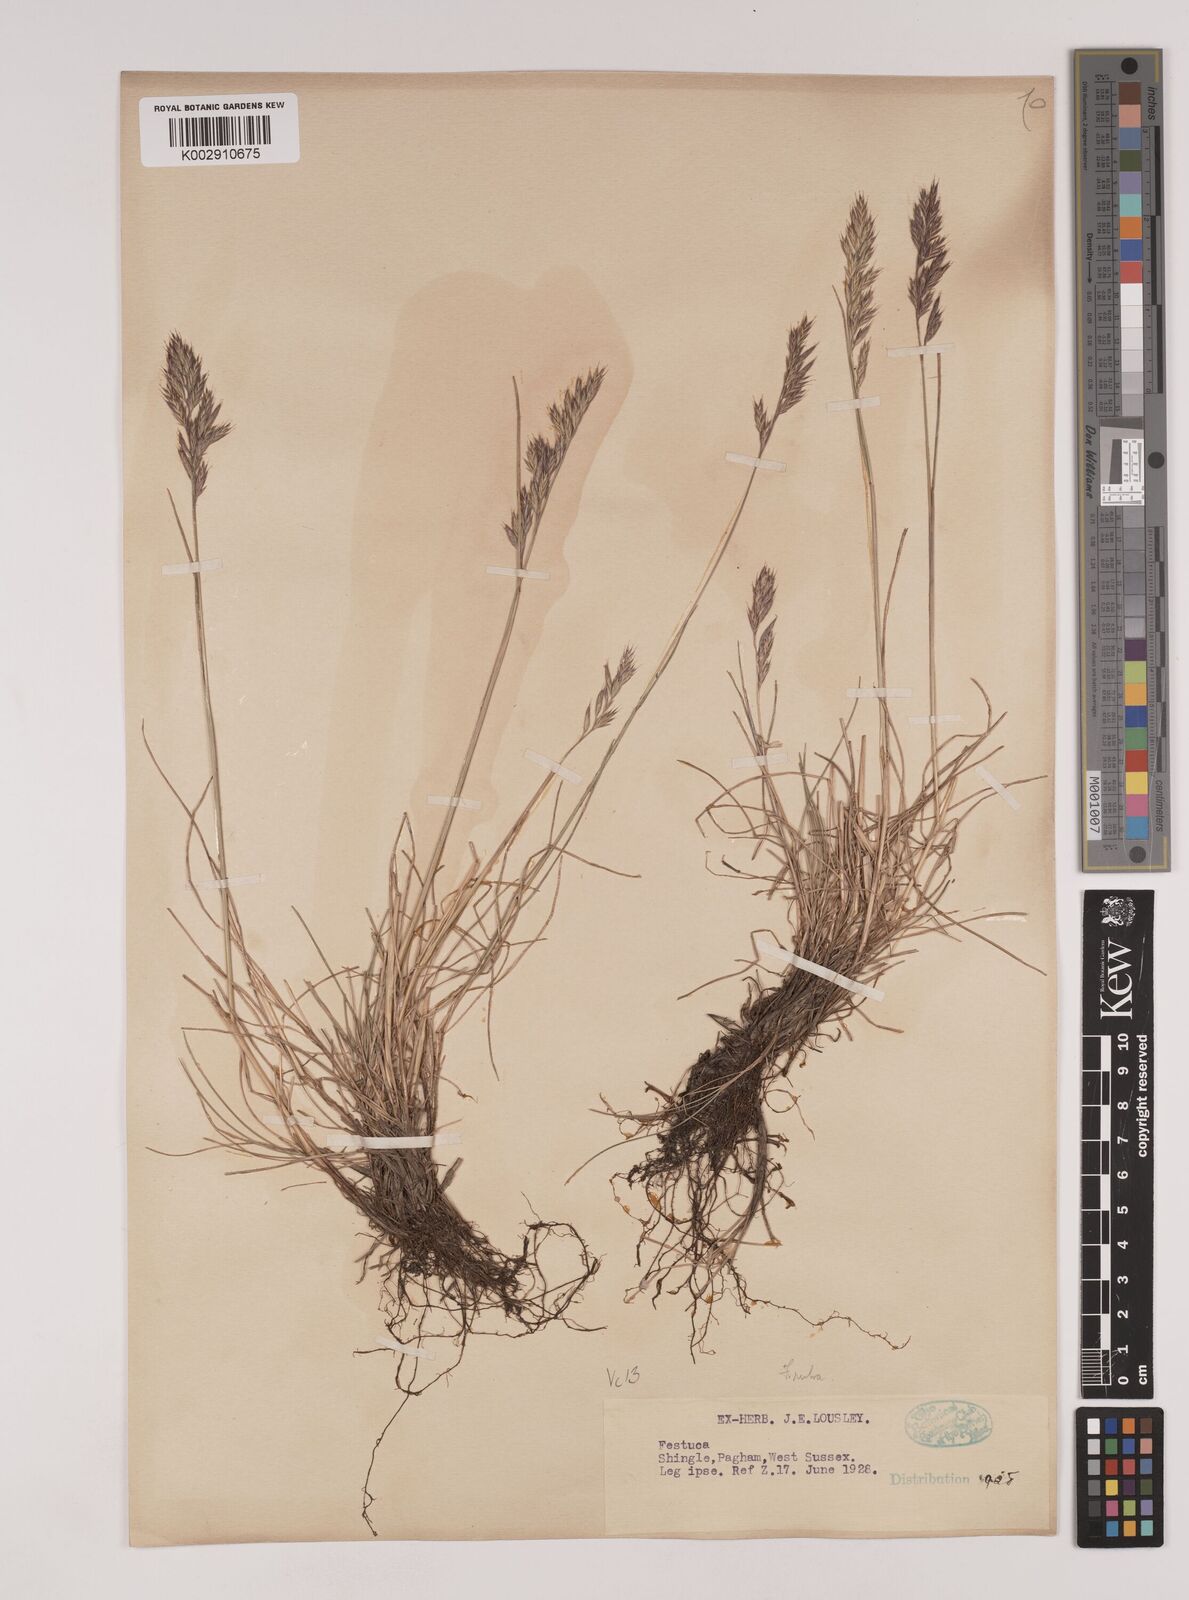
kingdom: Plantae
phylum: Tracheophyta
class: Liliopsida
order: Poales
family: Poaceae
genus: Festuca
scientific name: Festuca rubra
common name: Red fescue
